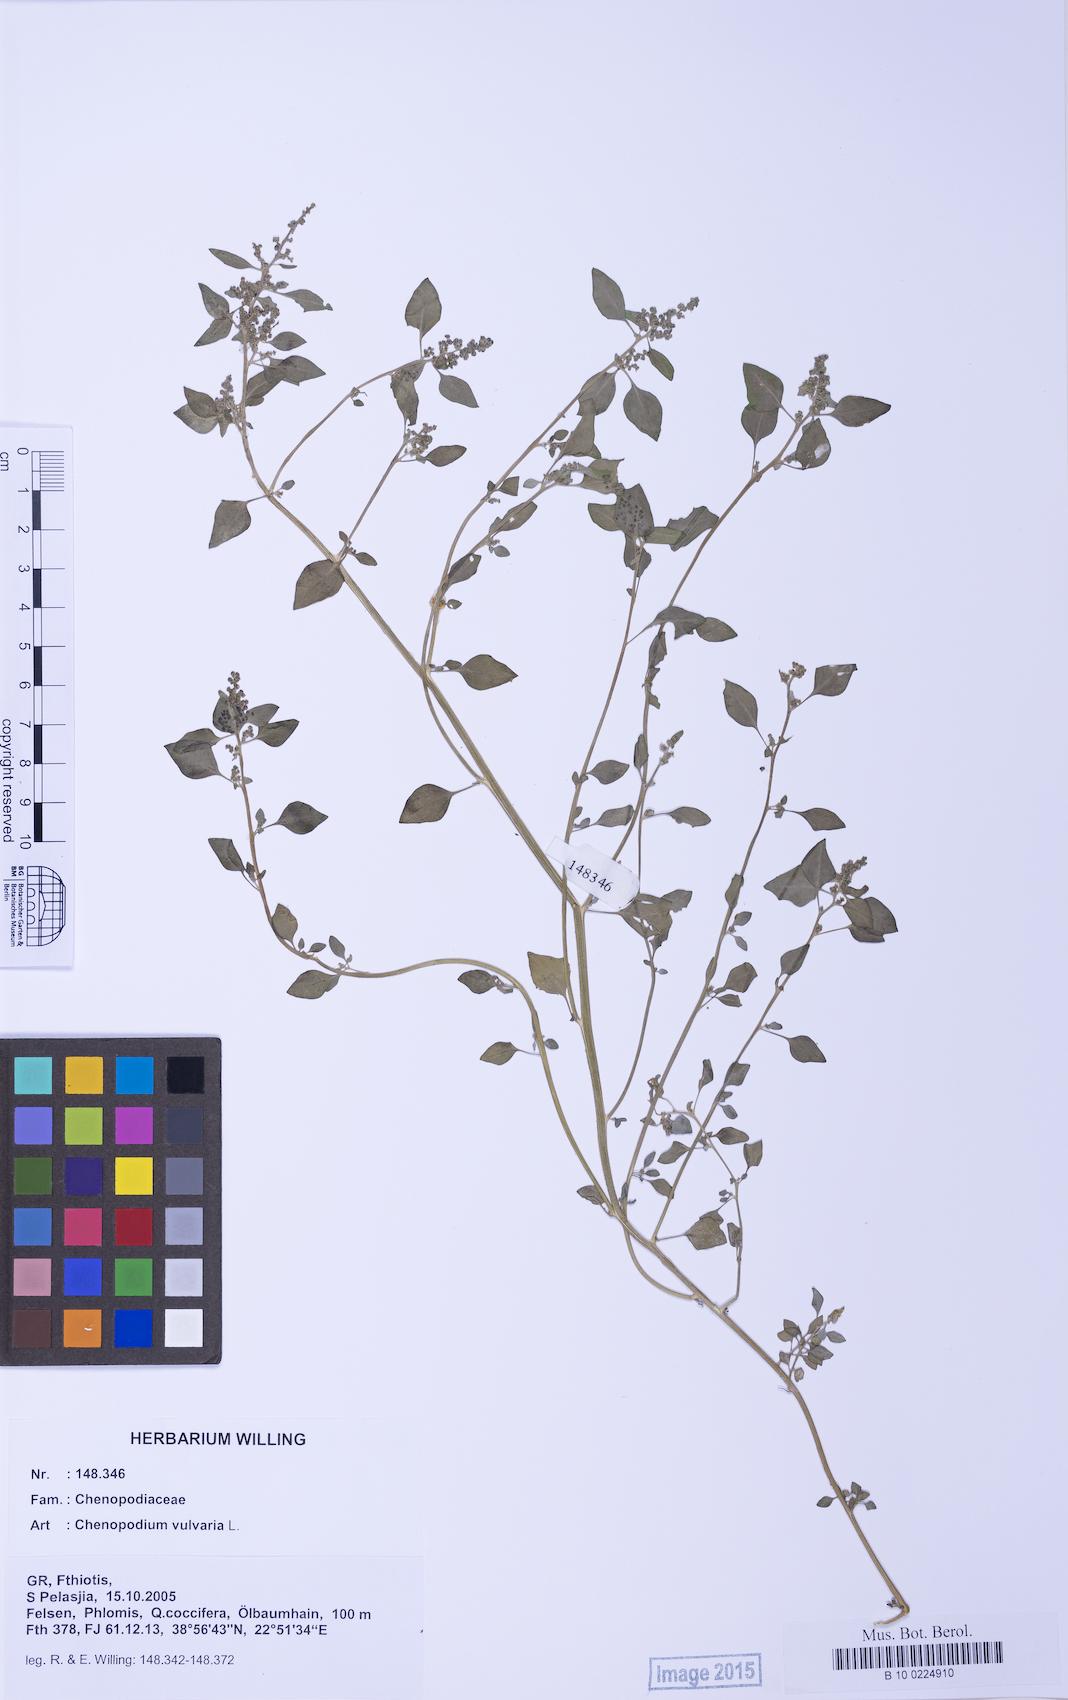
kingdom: Plantae
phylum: Tracheophyta
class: Magnoliopsida
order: Caryophyllales
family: Amaranthaceae
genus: Chenopodium
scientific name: Chenopodium vulvaria
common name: Stinking goosefoot
